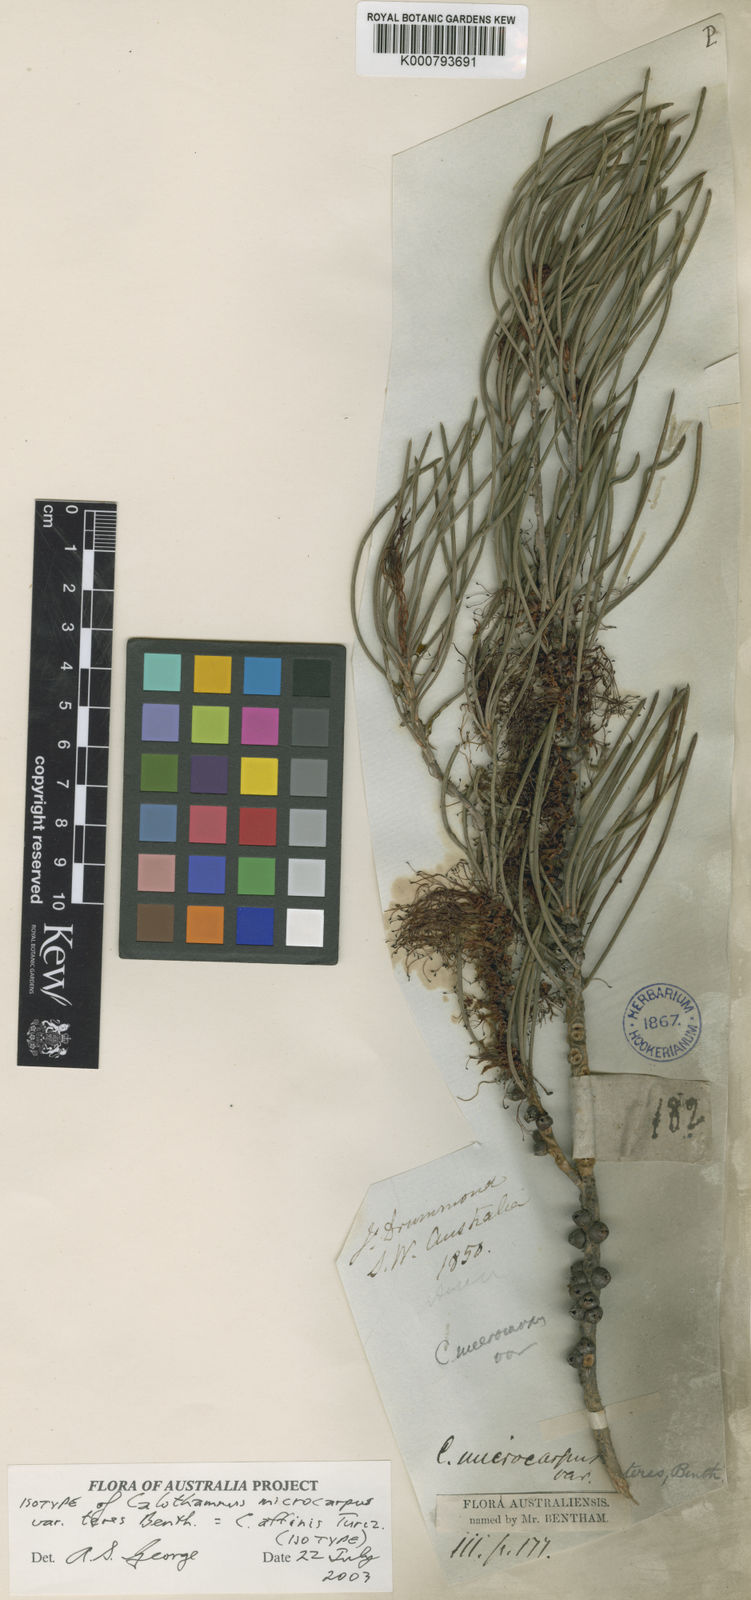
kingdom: Plantae
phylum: Tracheophyta
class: Magnoliopsida
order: Myrtales
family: Myrtaceae
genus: Melaleuca
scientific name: Melaleuca relativa
